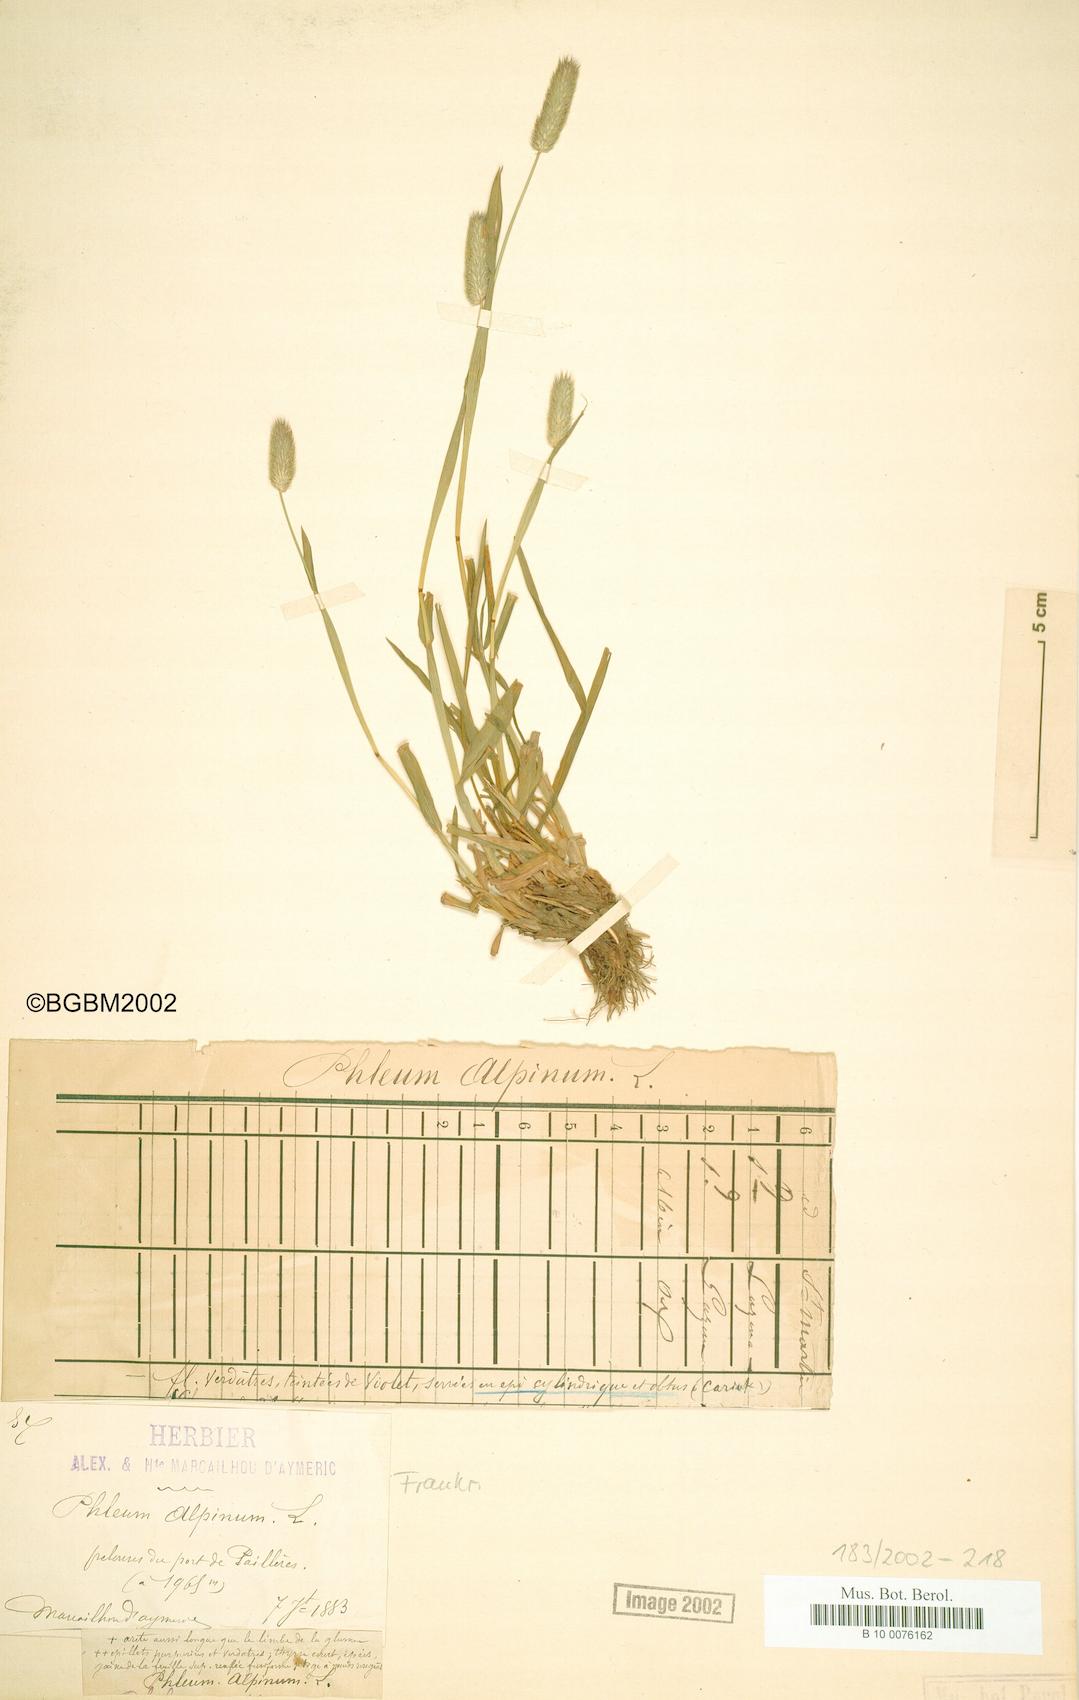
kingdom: Plantae
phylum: Tracheophyta
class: Liliopsida
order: Poales
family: Poaceae
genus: Phleum
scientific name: Phleum alpinum
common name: Alpine cat's-tail
